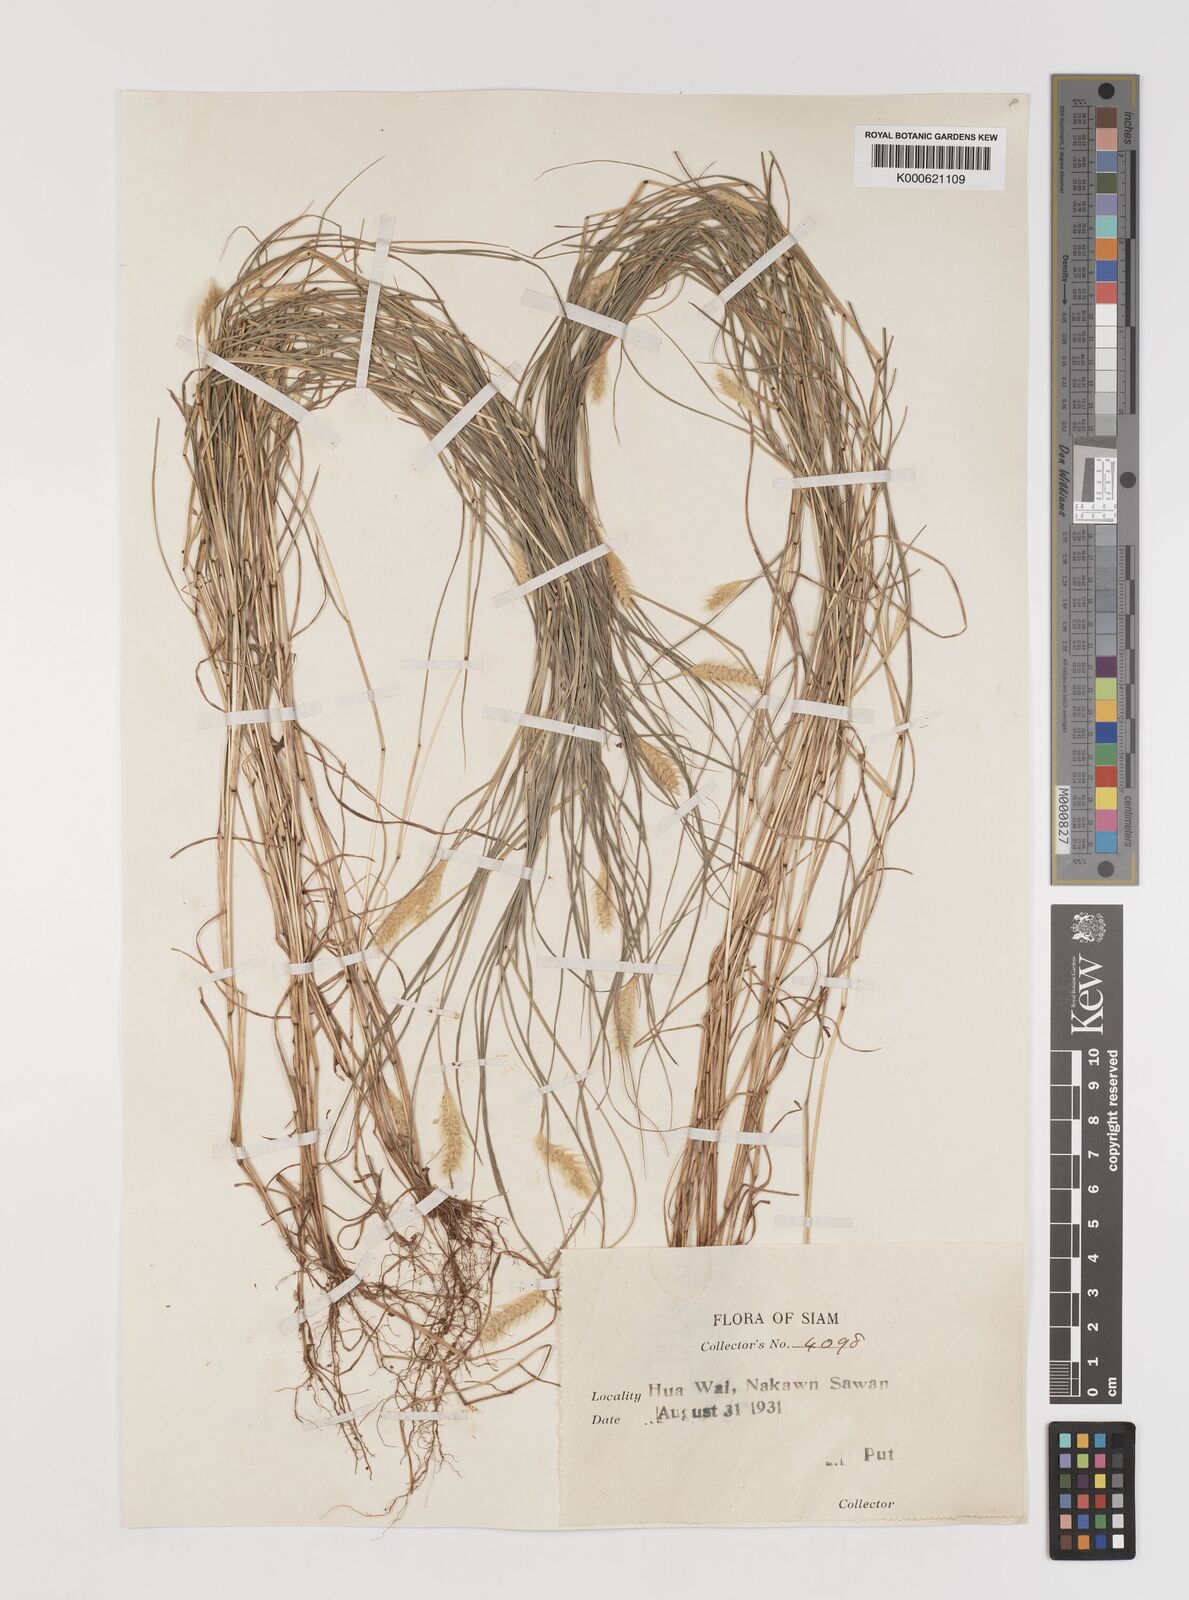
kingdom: Plantae
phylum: Tracheophyta
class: Liliopsida
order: Poales
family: Poaceae
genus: Setaria
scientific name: Setaria pumila
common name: Yellow bristle-grass
